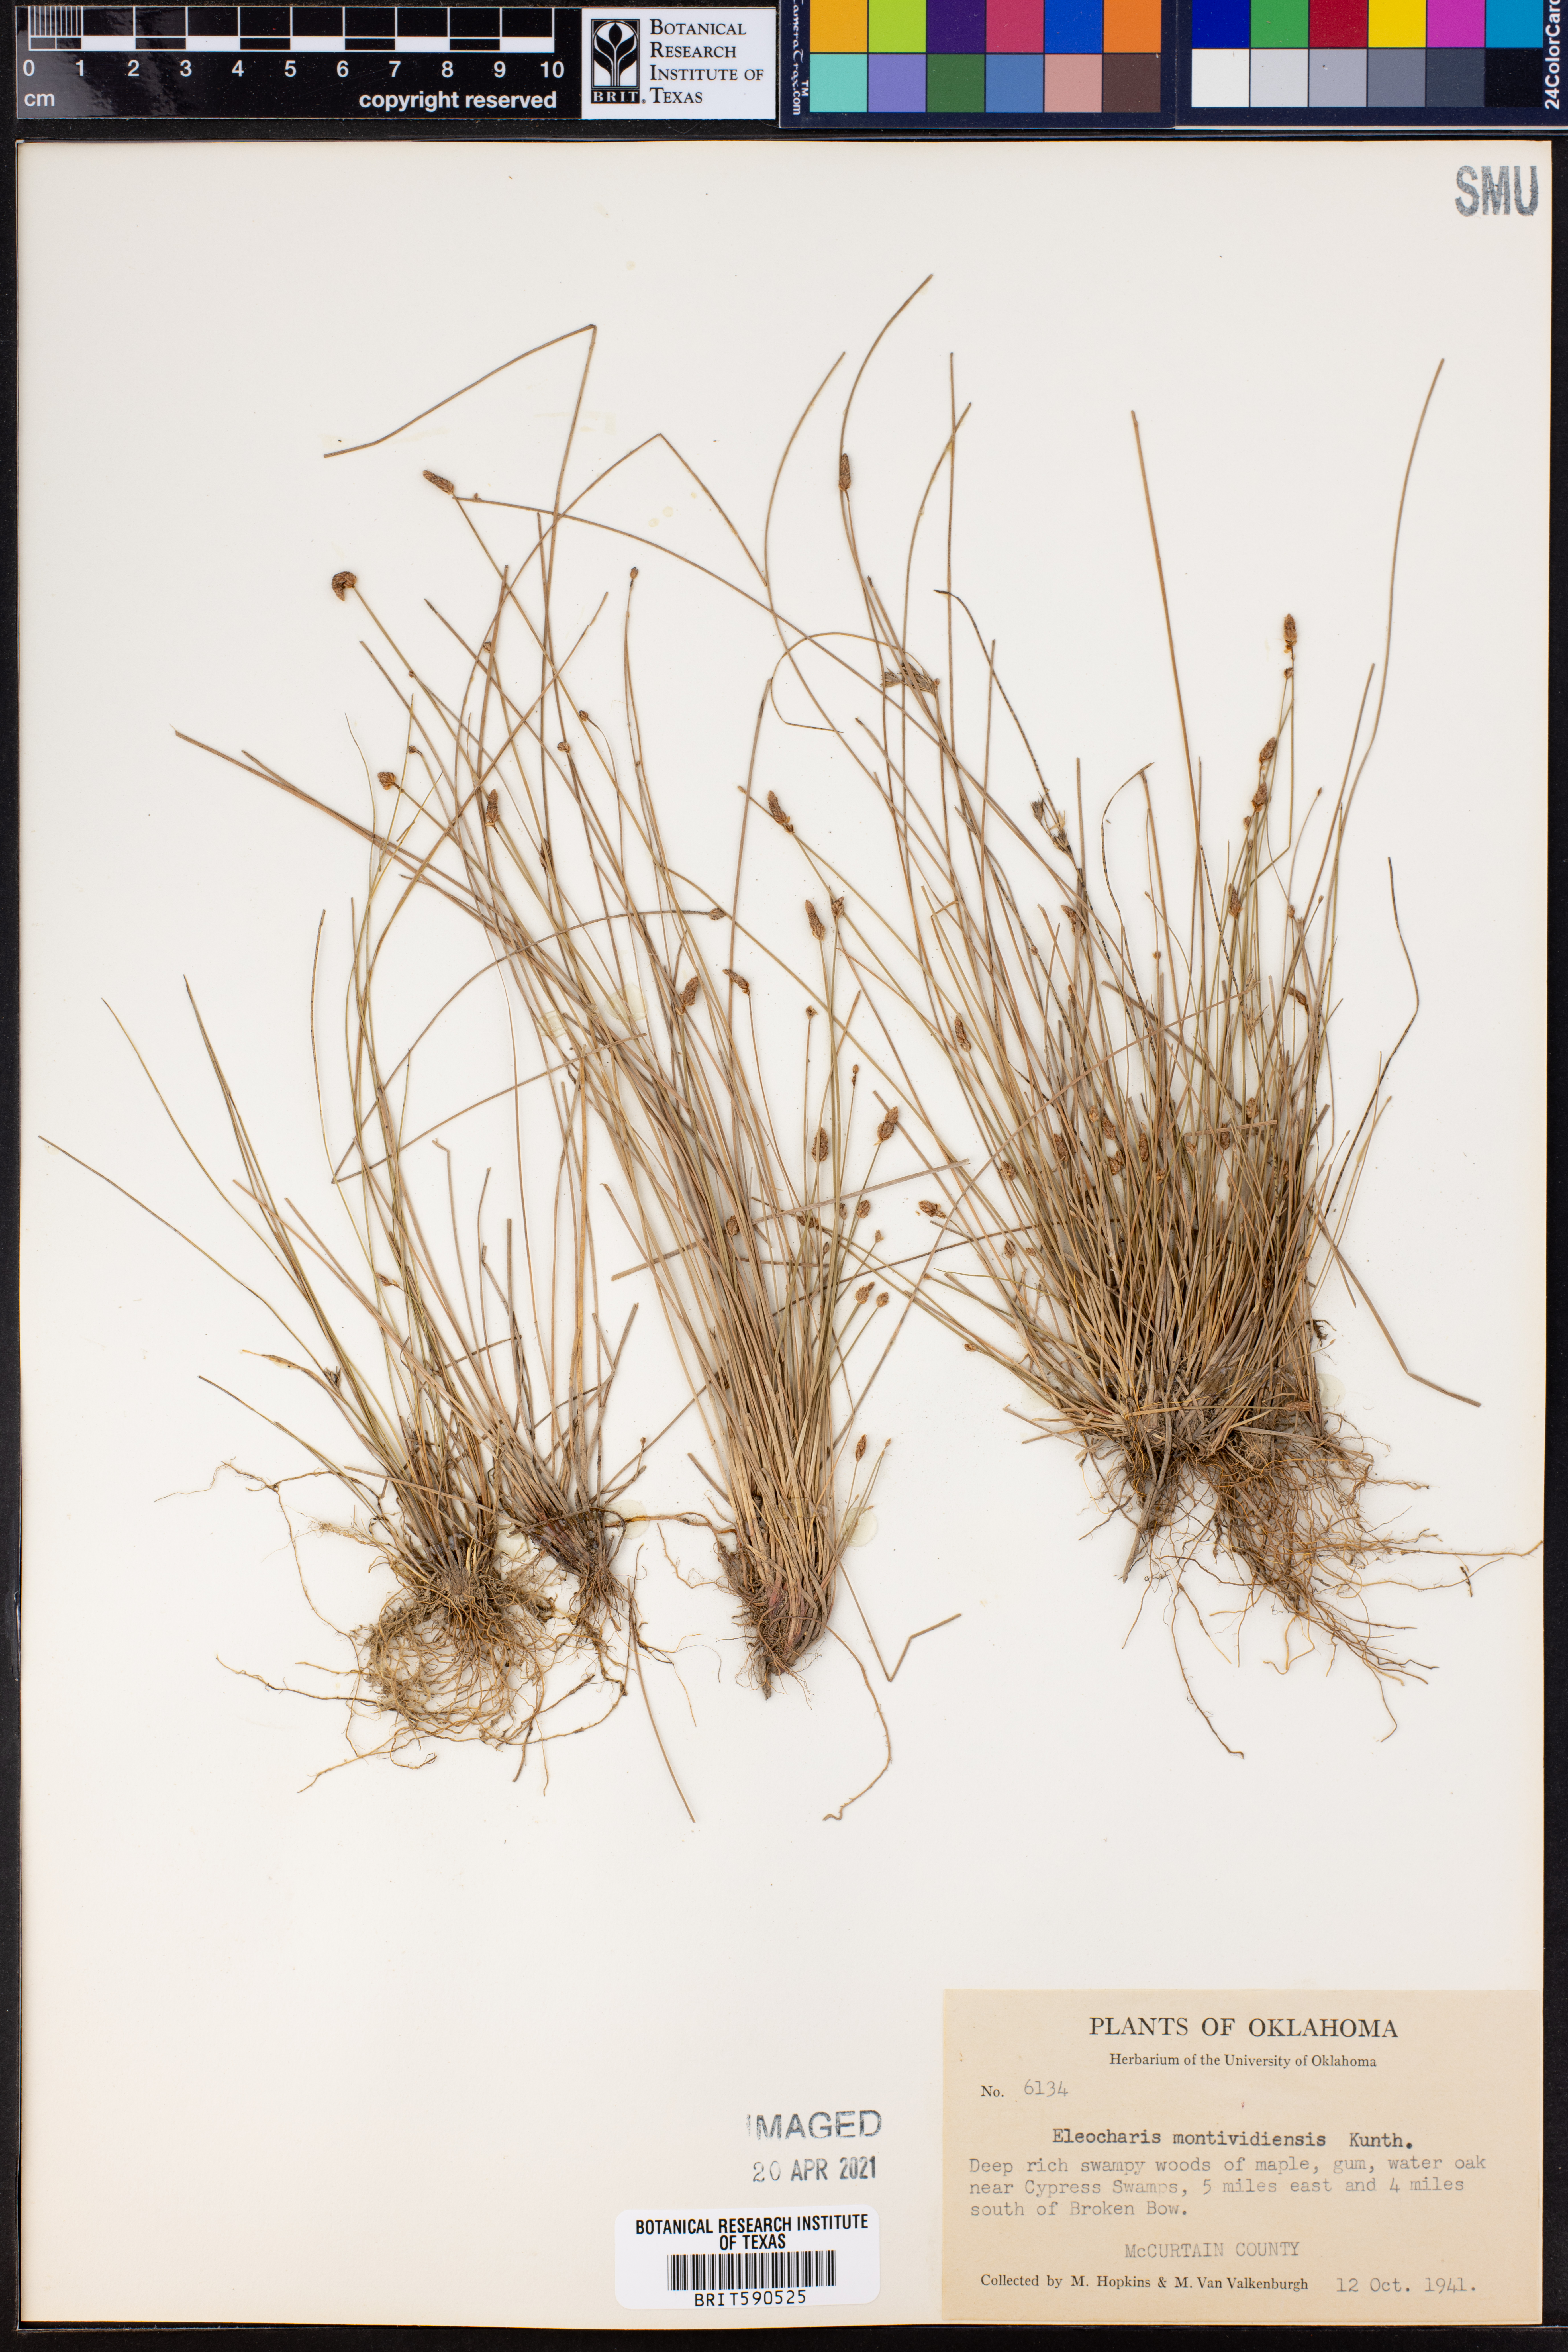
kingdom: Plantae
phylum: Tracheophyta
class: Liliopsida
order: Poales
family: Cyperaceae
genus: Eleocharis
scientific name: Eleocharis montevidensis
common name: Sand spike-rush
